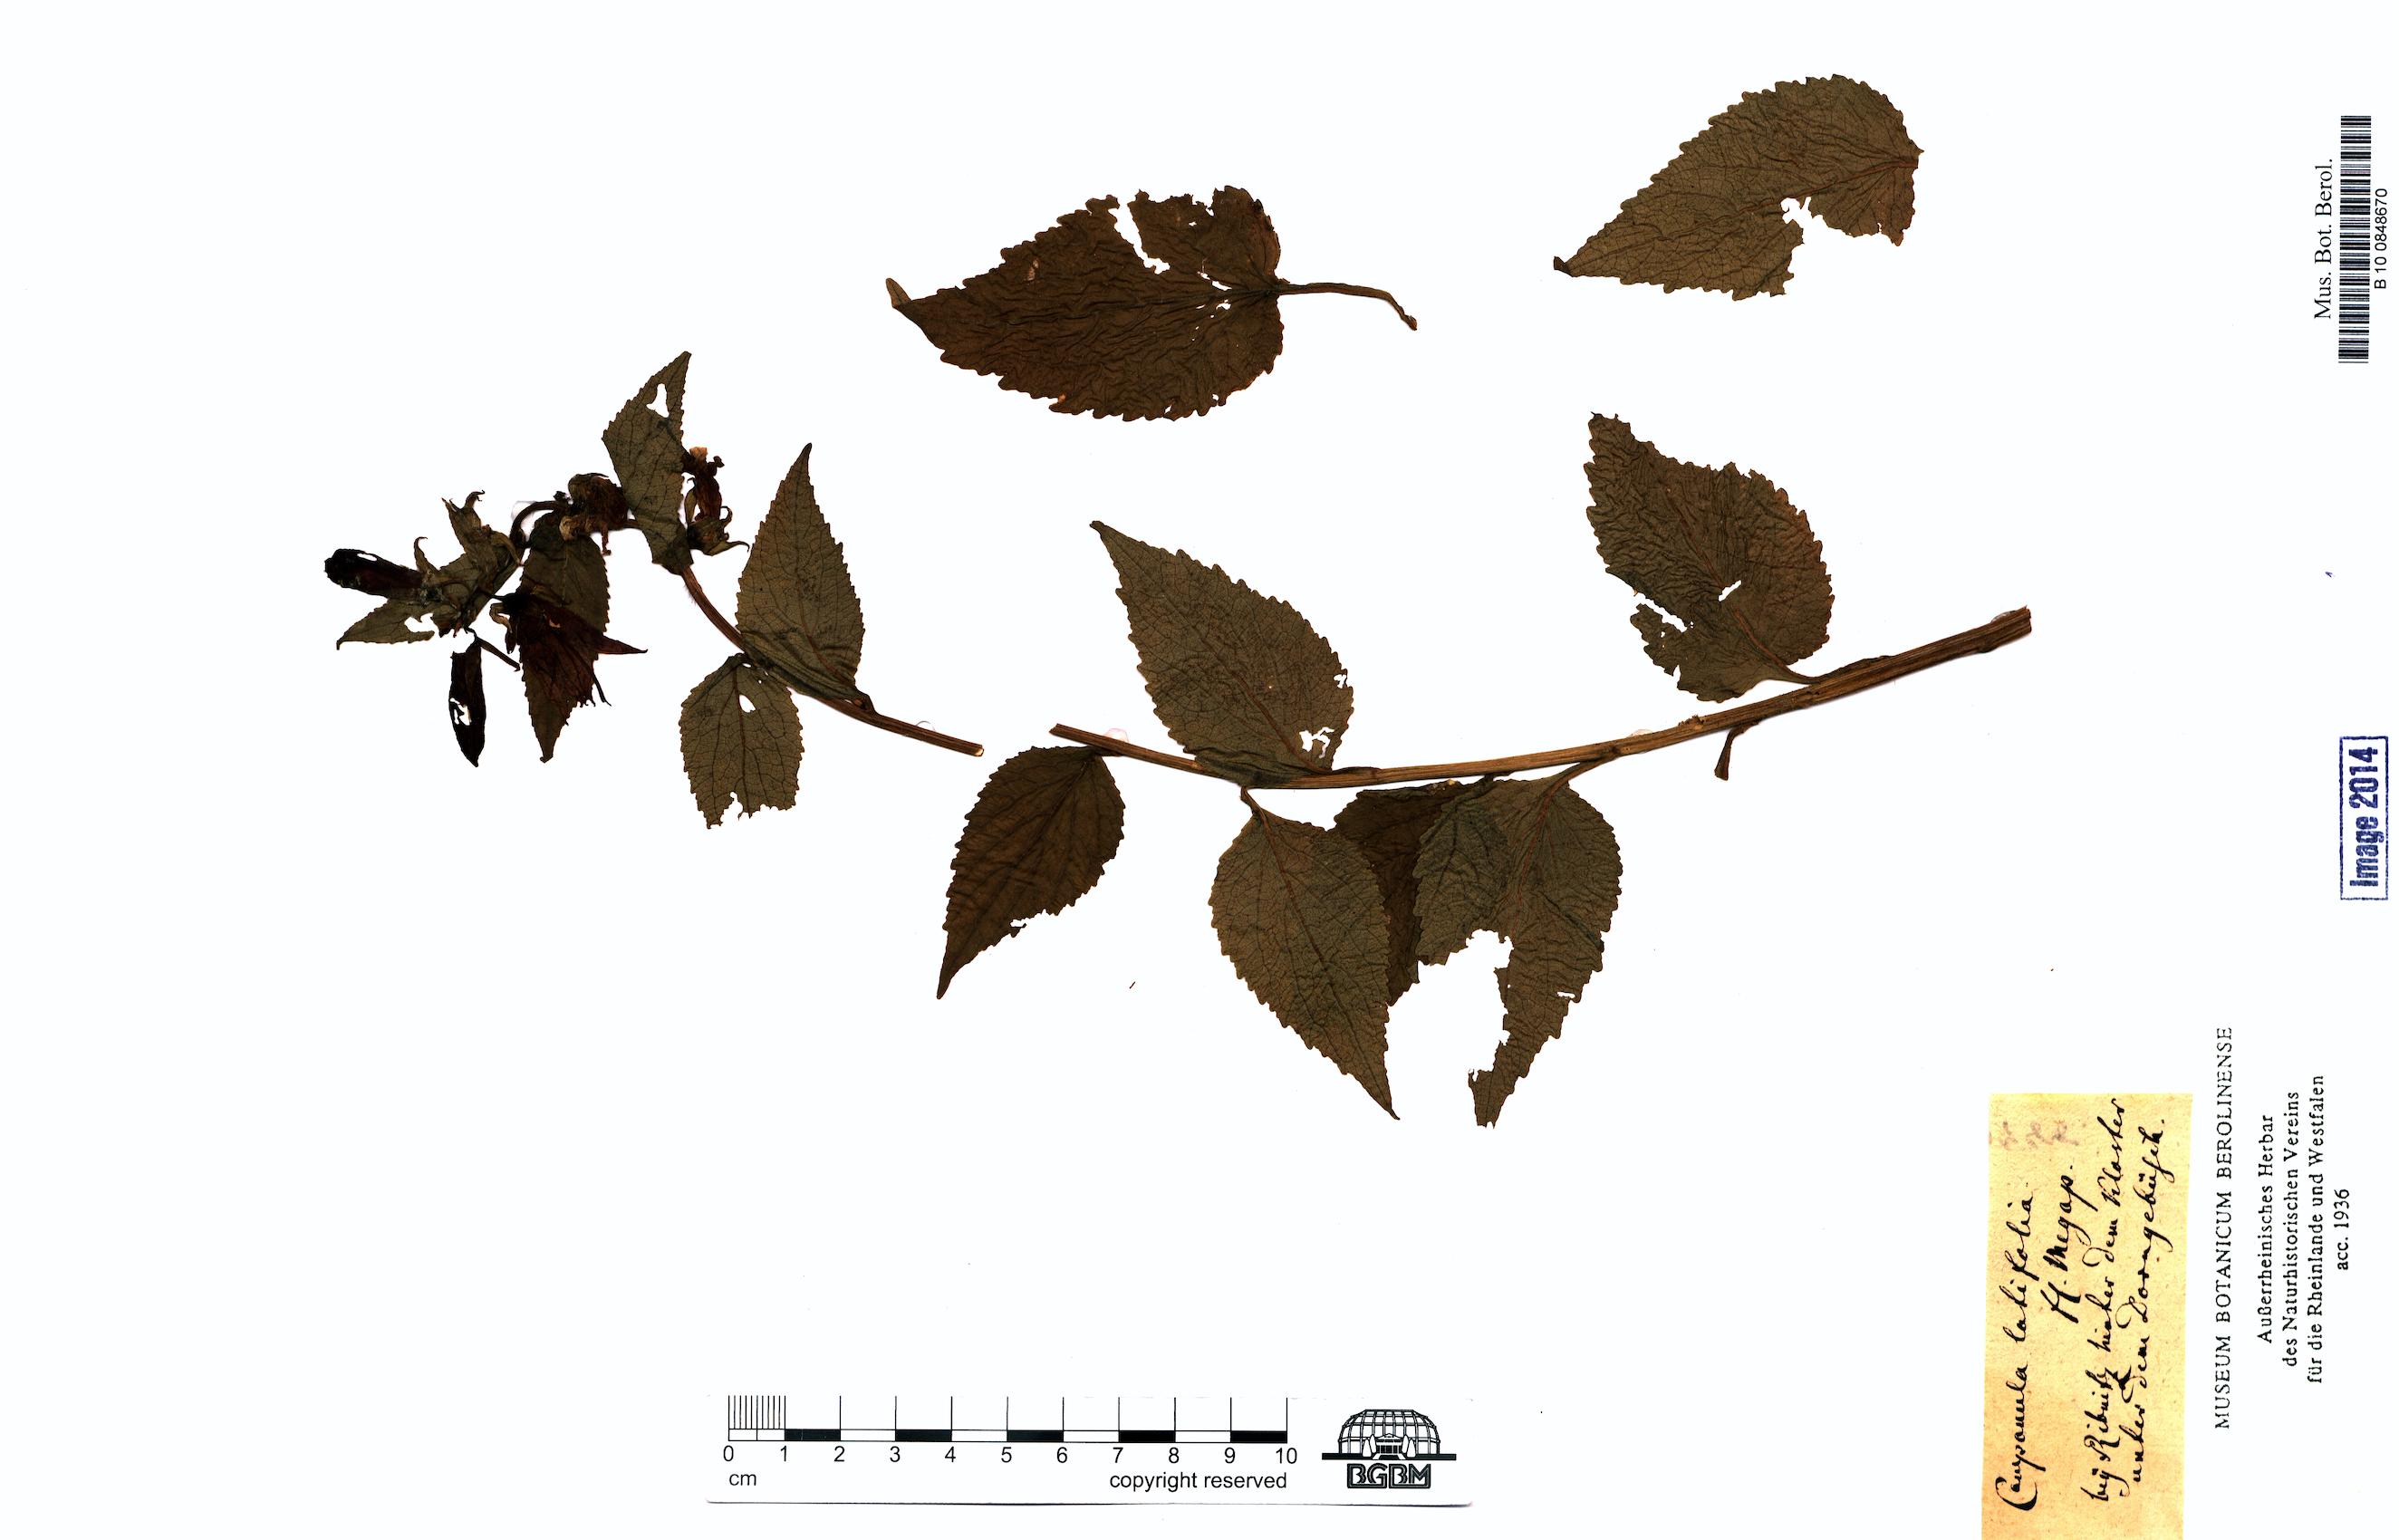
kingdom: Plantae
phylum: Tracheophyta
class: Magnoliopsida
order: Asterales
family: Campanulaceae
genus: Campanula
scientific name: Campanula latifolia
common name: Giant bellflower
